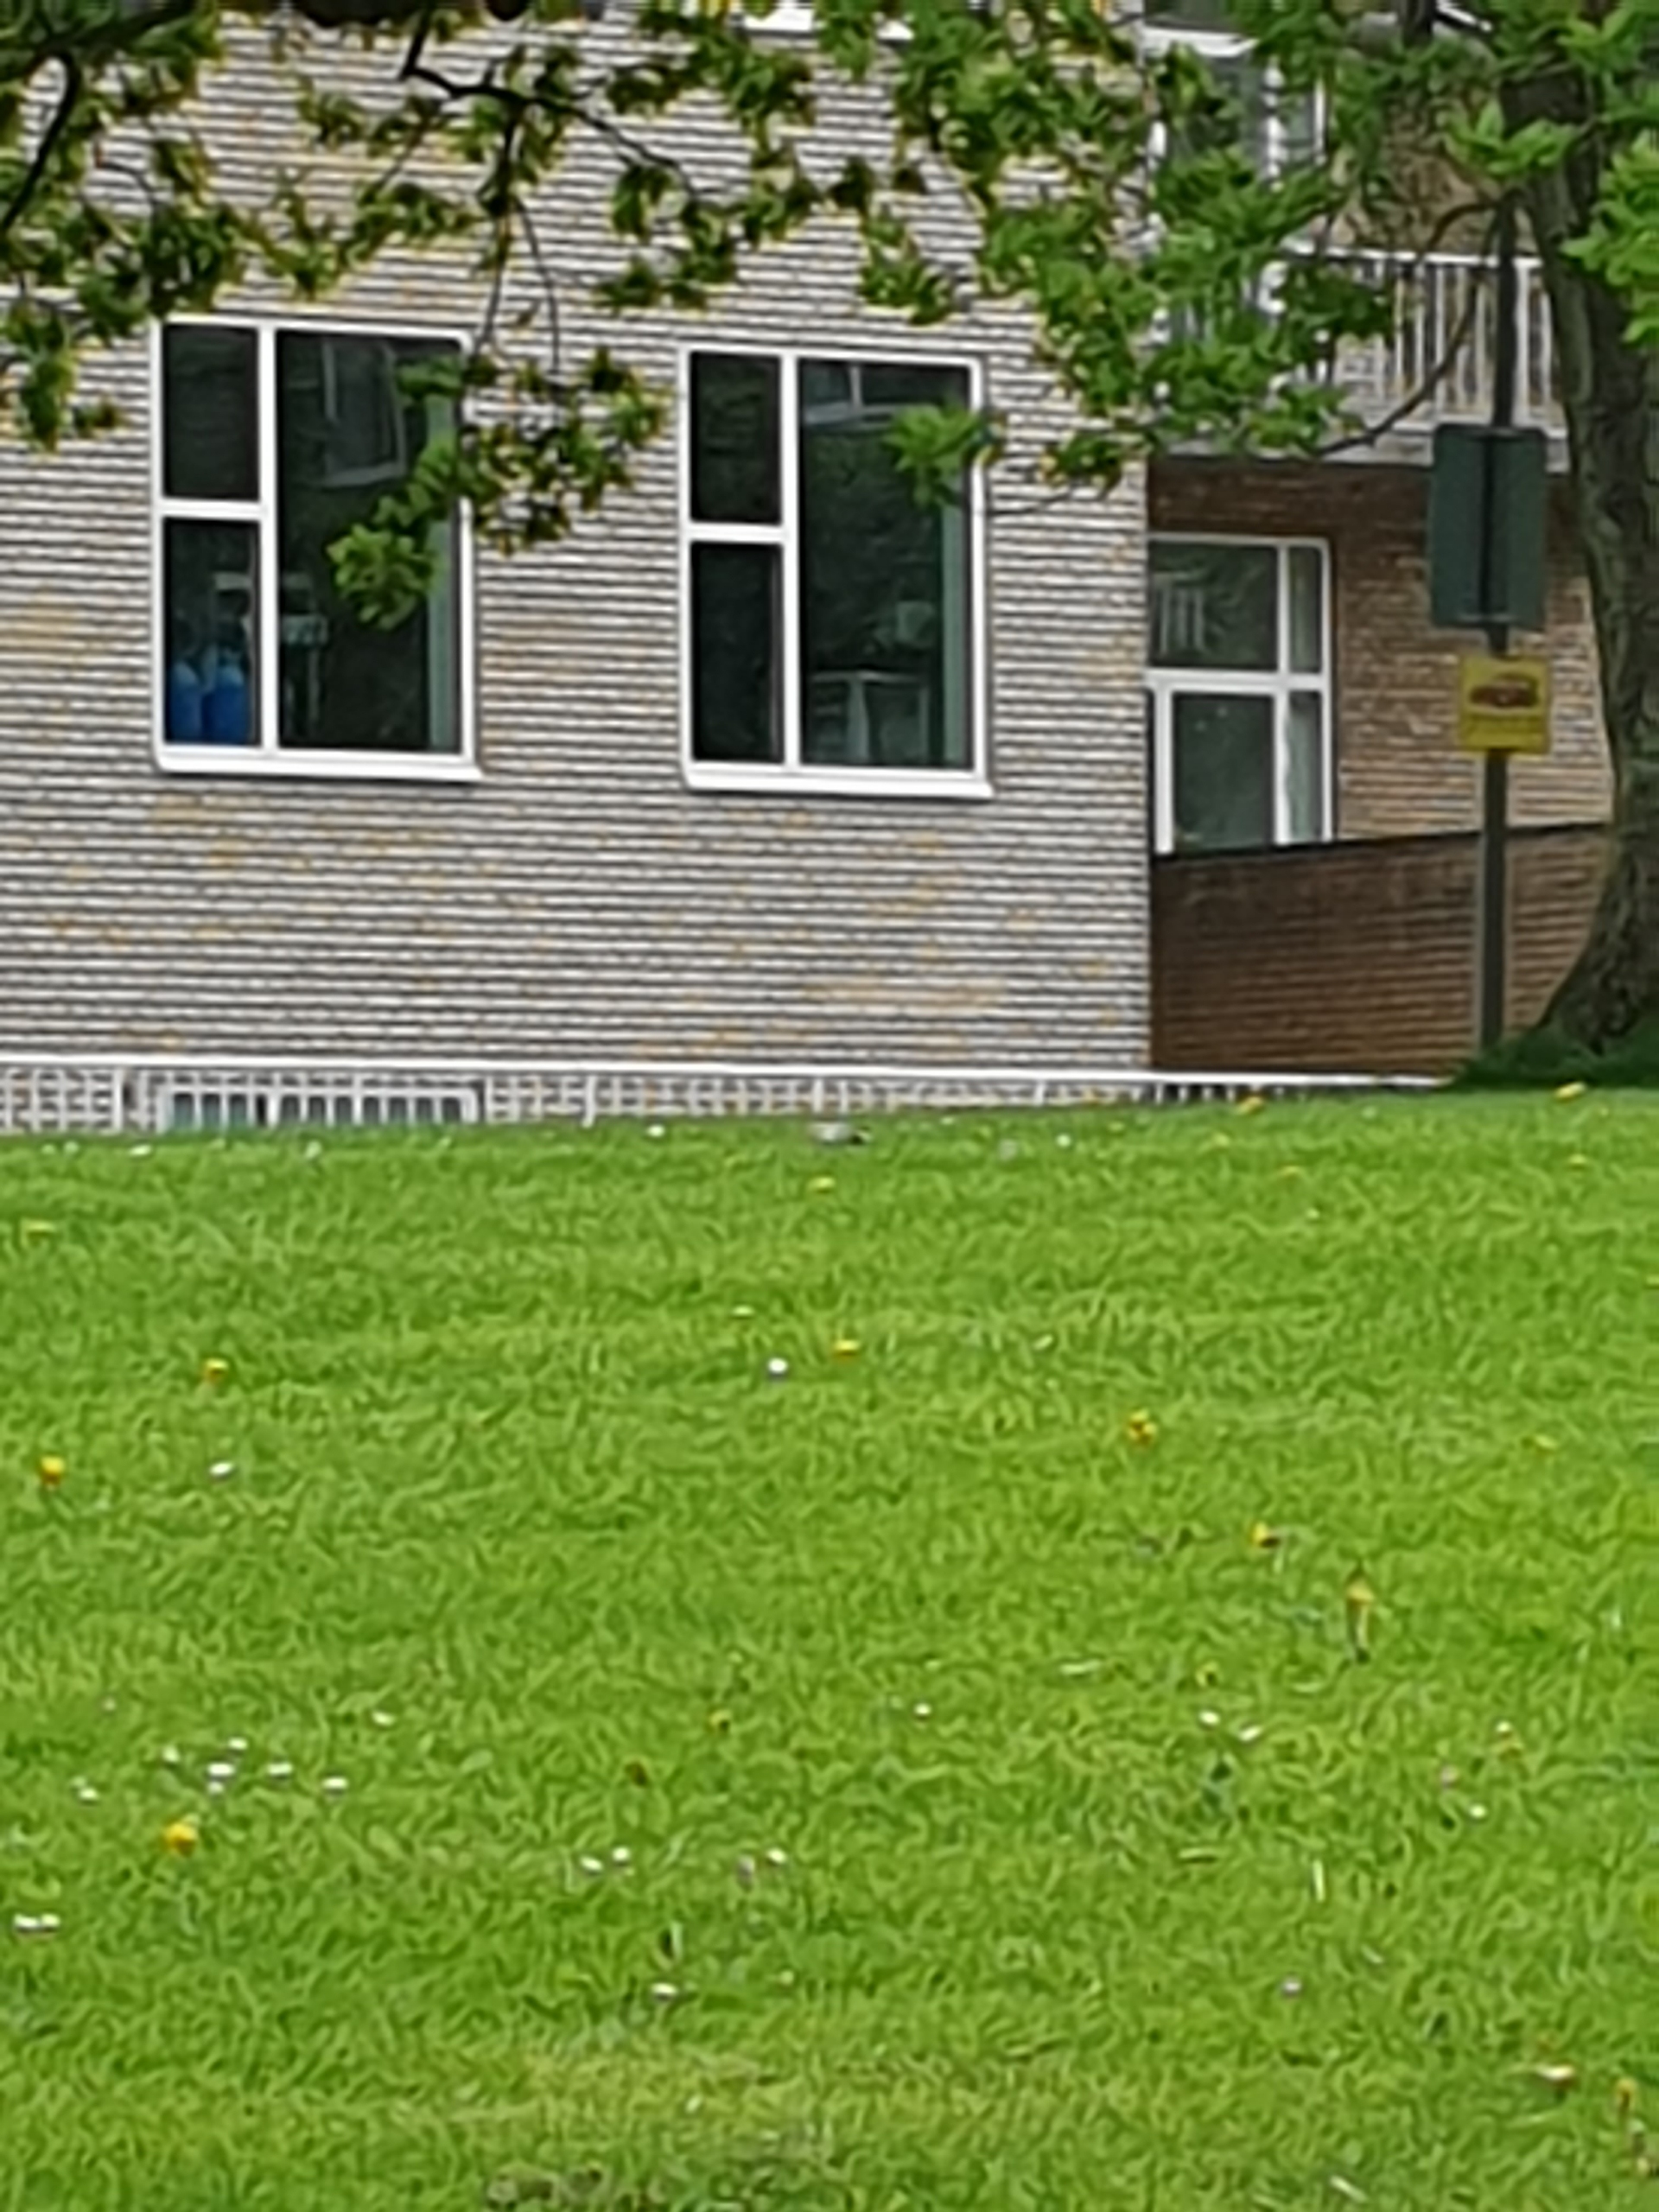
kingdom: Animalia
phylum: Chordata
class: Aves
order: Passeriformes
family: Motacillidae
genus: Motacilla
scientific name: Motacilla alba
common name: Hvid vipstjert
